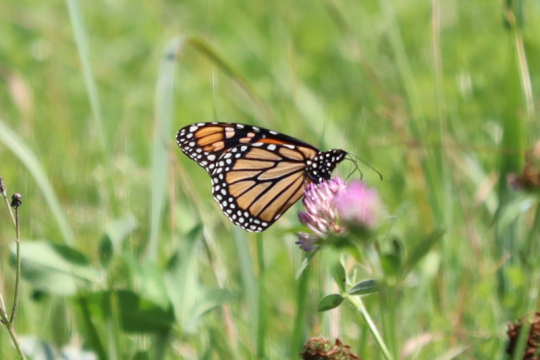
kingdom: Animalia
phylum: Arthropoda
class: Insecta
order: Lepidoptera
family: Nymphalidae
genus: Danaus
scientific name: Danaus plexippus
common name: Monarch
